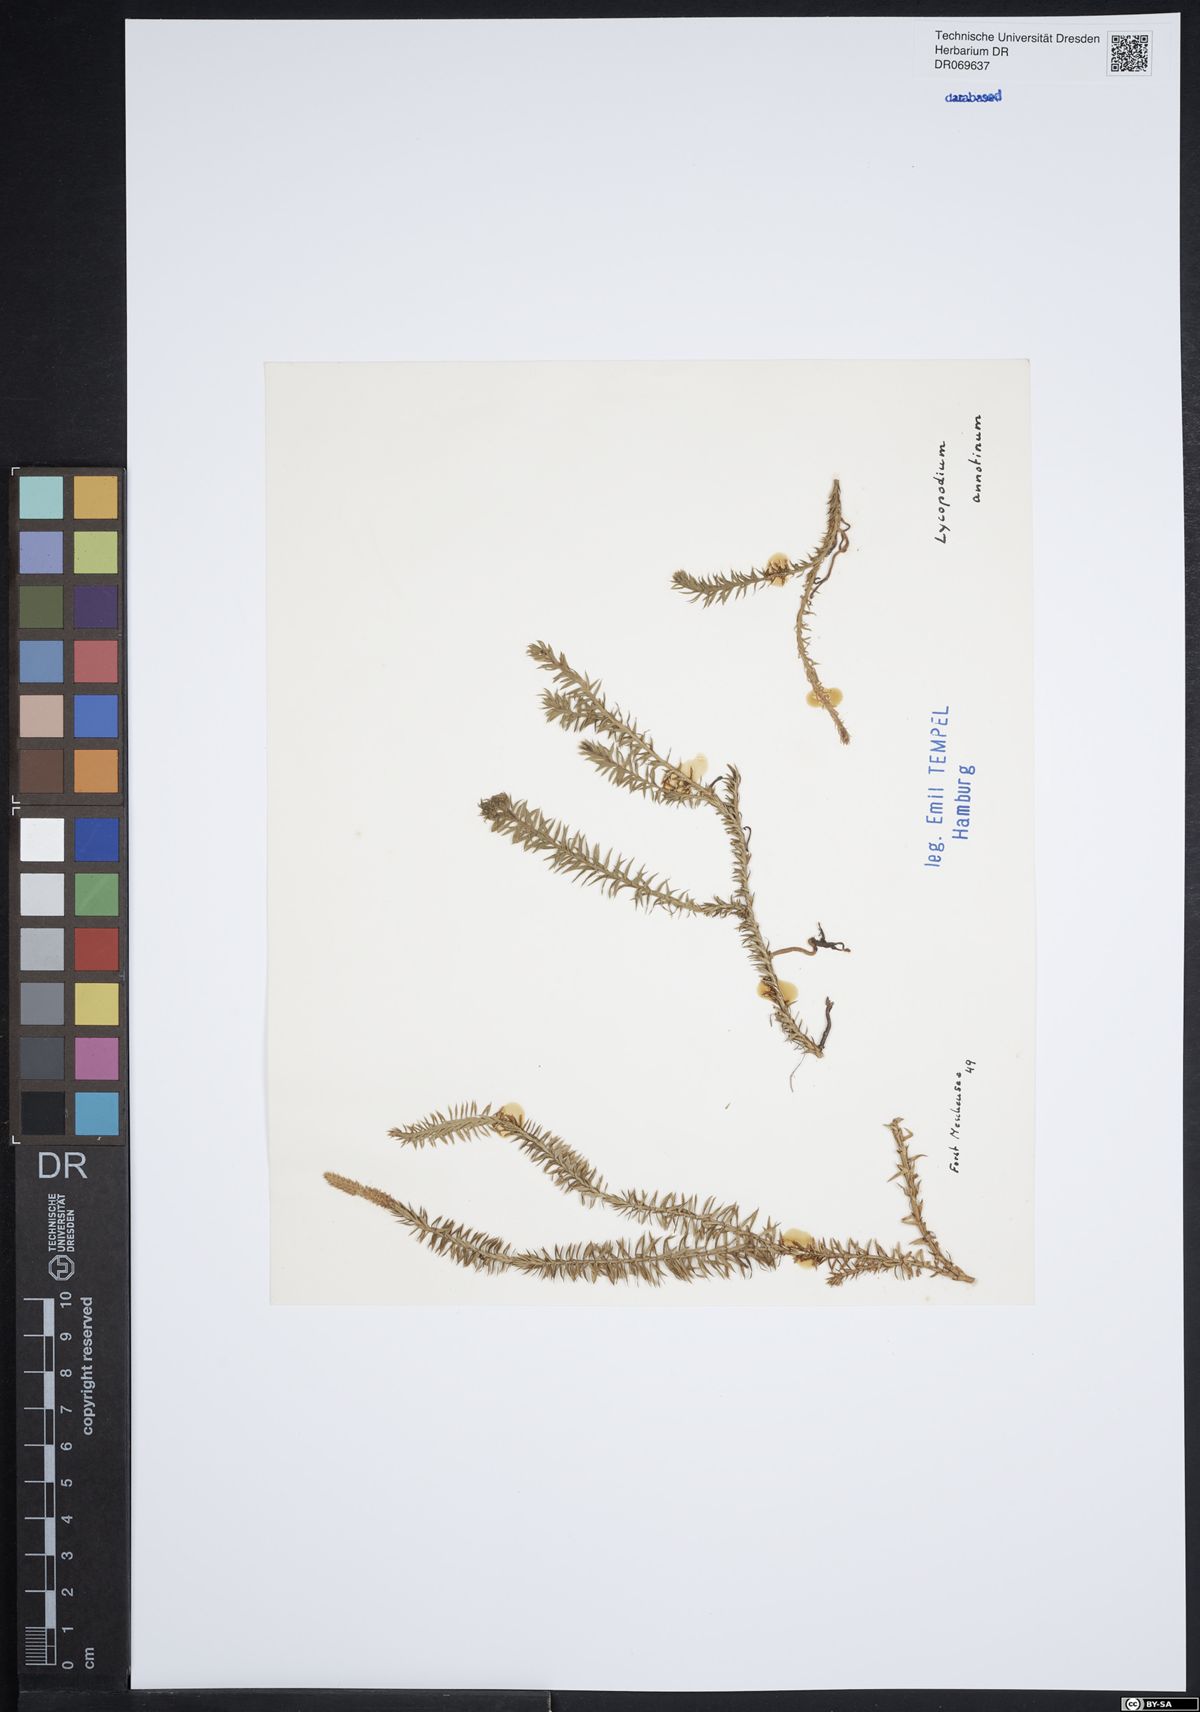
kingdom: Plantae
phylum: Tracheophyta
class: Lycopodiopsida
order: Lycopodiales
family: Lycopodiaceae
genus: Spinulum
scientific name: Spinulum annotinum
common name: Interrupted club-moss
